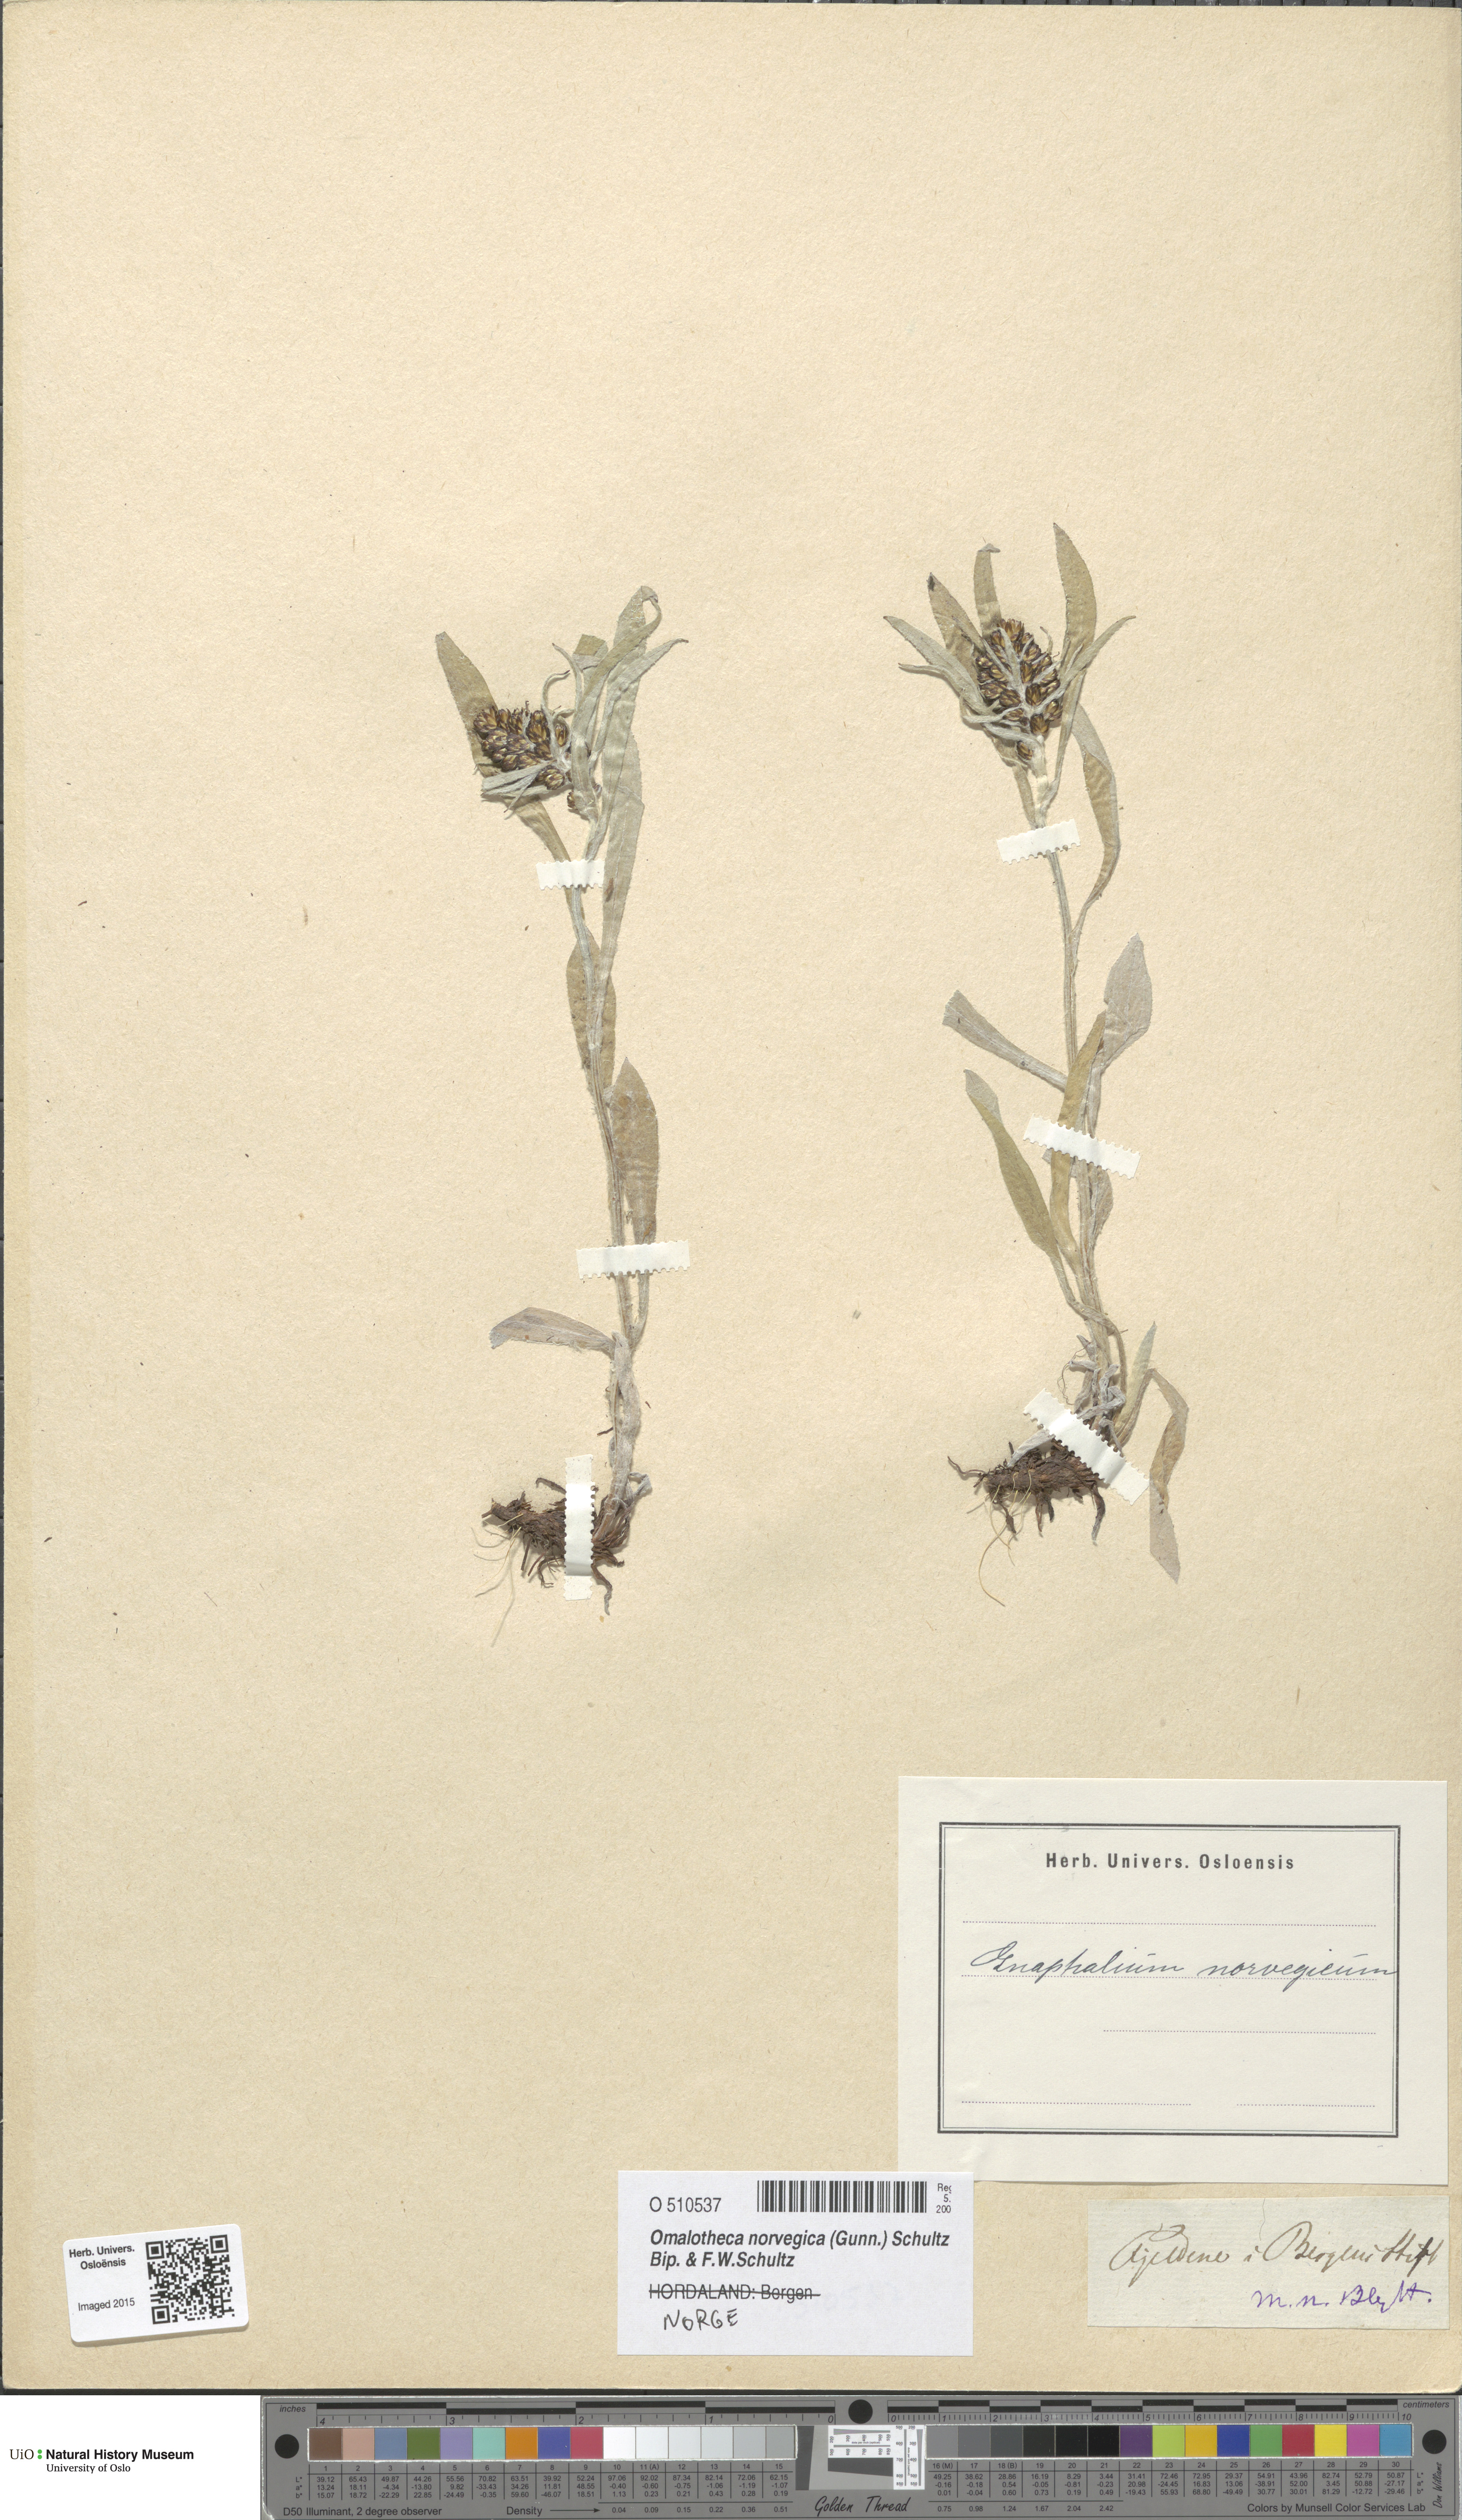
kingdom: Plantae
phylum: Tracheophyta
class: Magnoliopsida
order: Asterales
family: Asteraceae
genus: Omalotheca
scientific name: Omalotheca norvegica
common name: Norwegian arctic-cudweed
